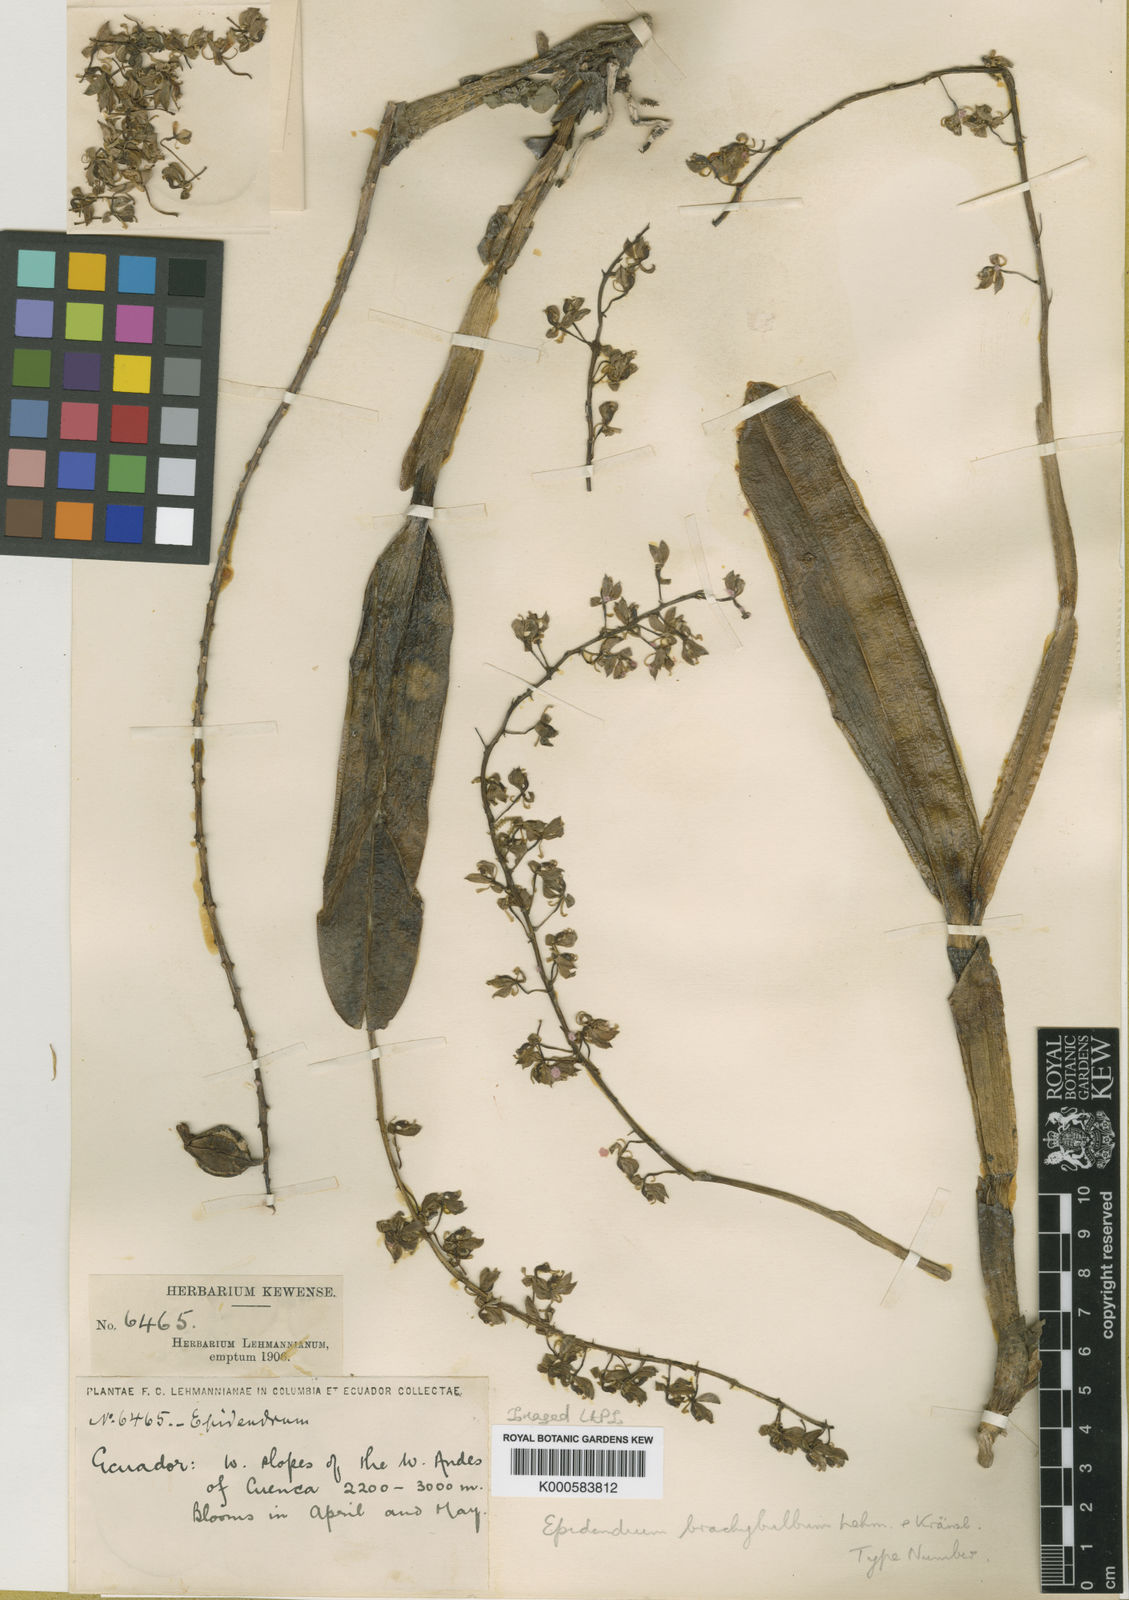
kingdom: Plantae
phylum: Tracheophyta
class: Liliopsida
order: Asparagales
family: Orchidaceae
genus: Epidendrum
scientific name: Epidendrum brachybulbum
